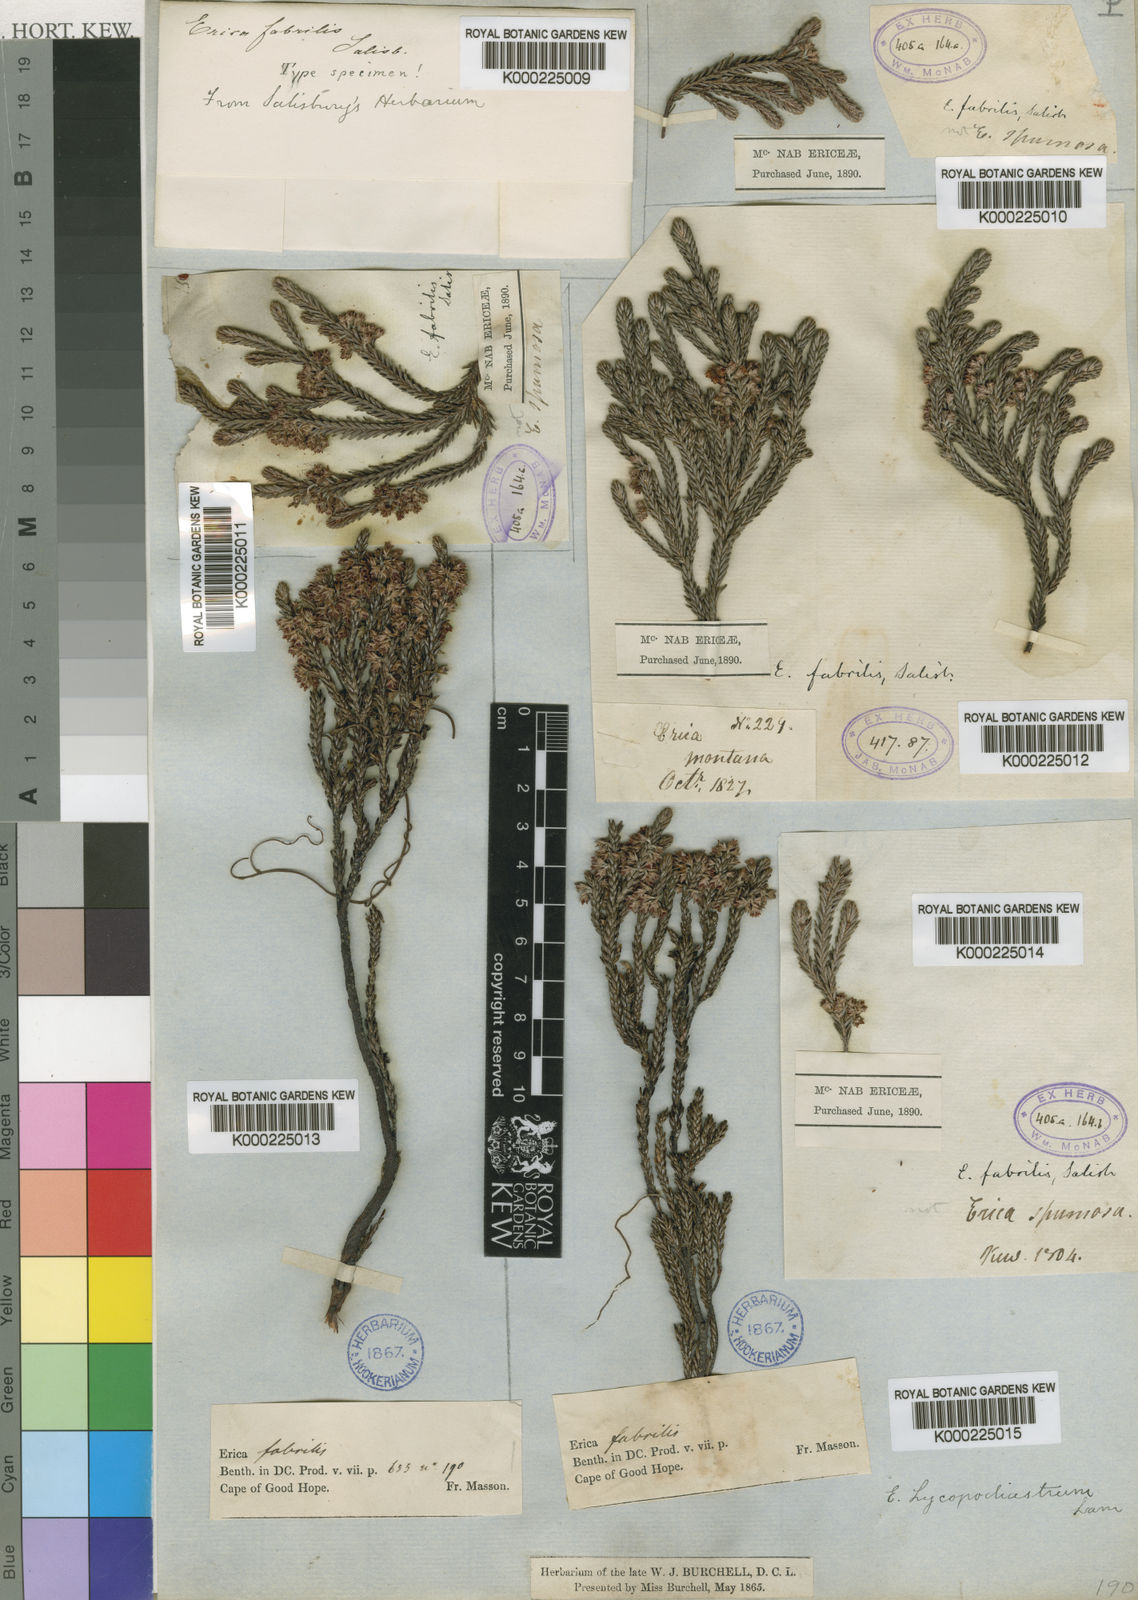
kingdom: Plantae
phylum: Tracheophyta
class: Magnoliopsida
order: Ericales
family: Ericaceae
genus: Erica
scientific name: Erica lycopodiastrum
